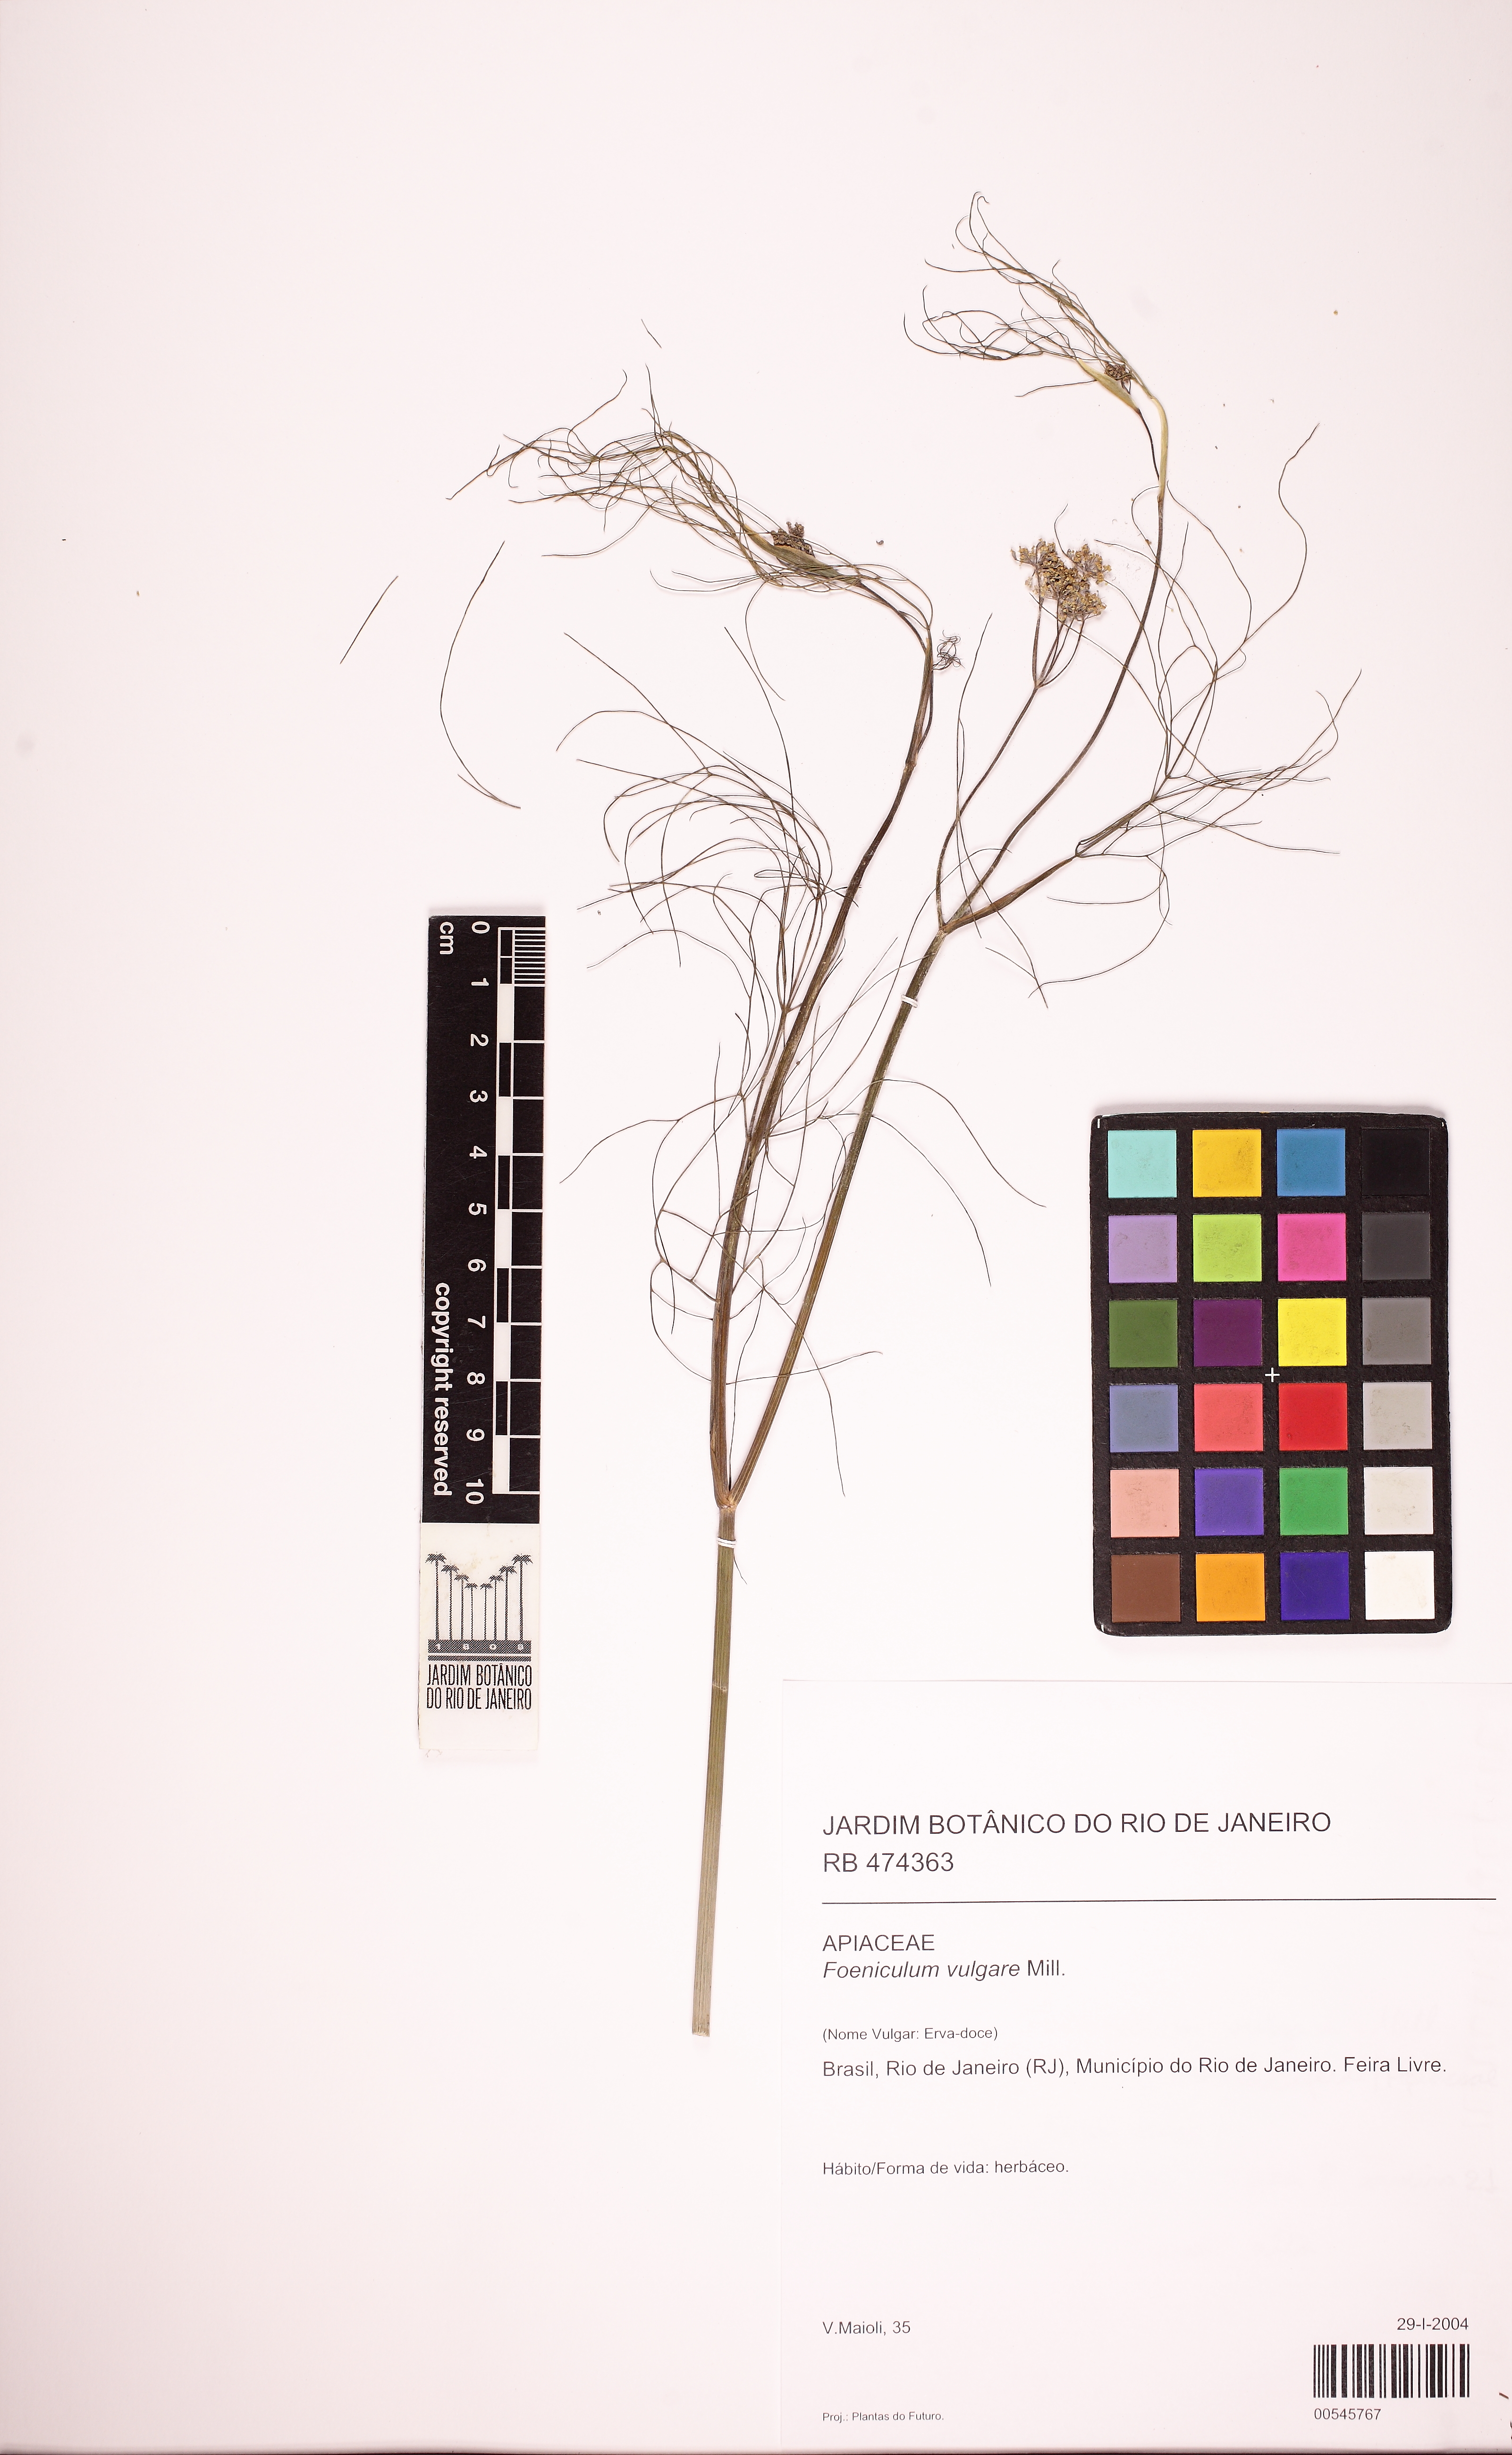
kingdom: Plantae
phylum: Tracheophyta
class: Magnoliopsida
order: Apiales
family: Apiaceae
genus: Foeniculum
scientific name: Foeniculum vulgare
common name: Fennel
